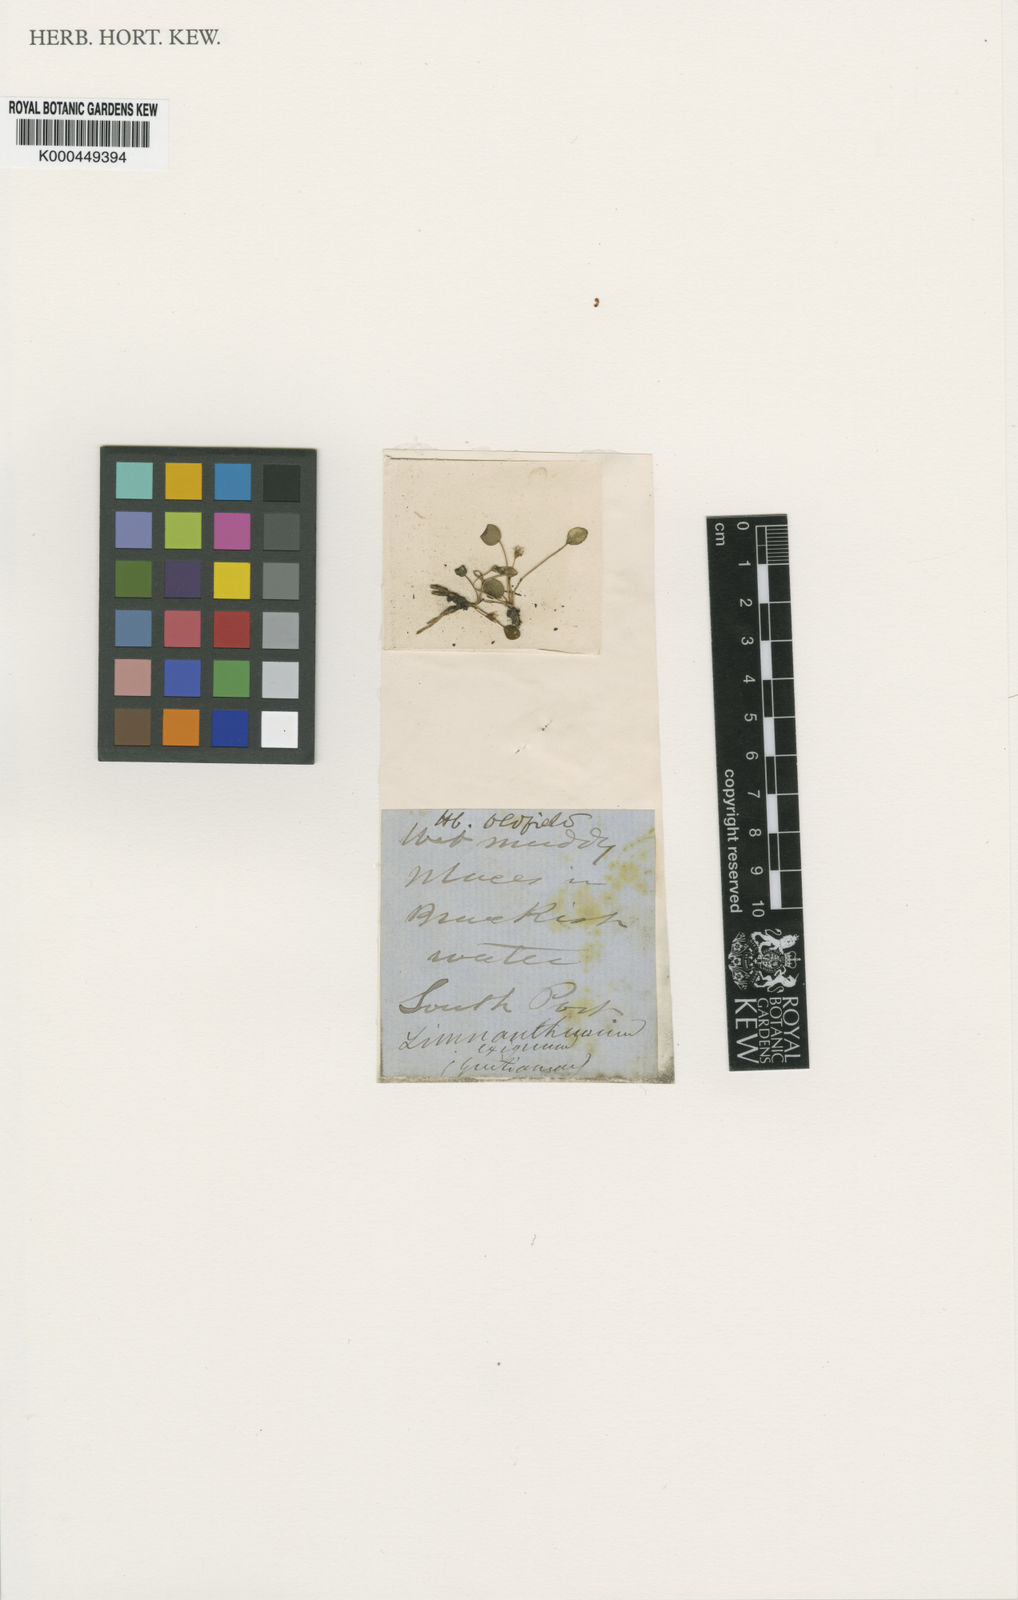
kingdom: Plantae
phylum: Tracheophyta
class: Magnoliopsida
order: Asterales
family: Menyanthaceae
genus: Liparophyllum
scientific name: Liparophyllum exiguum
